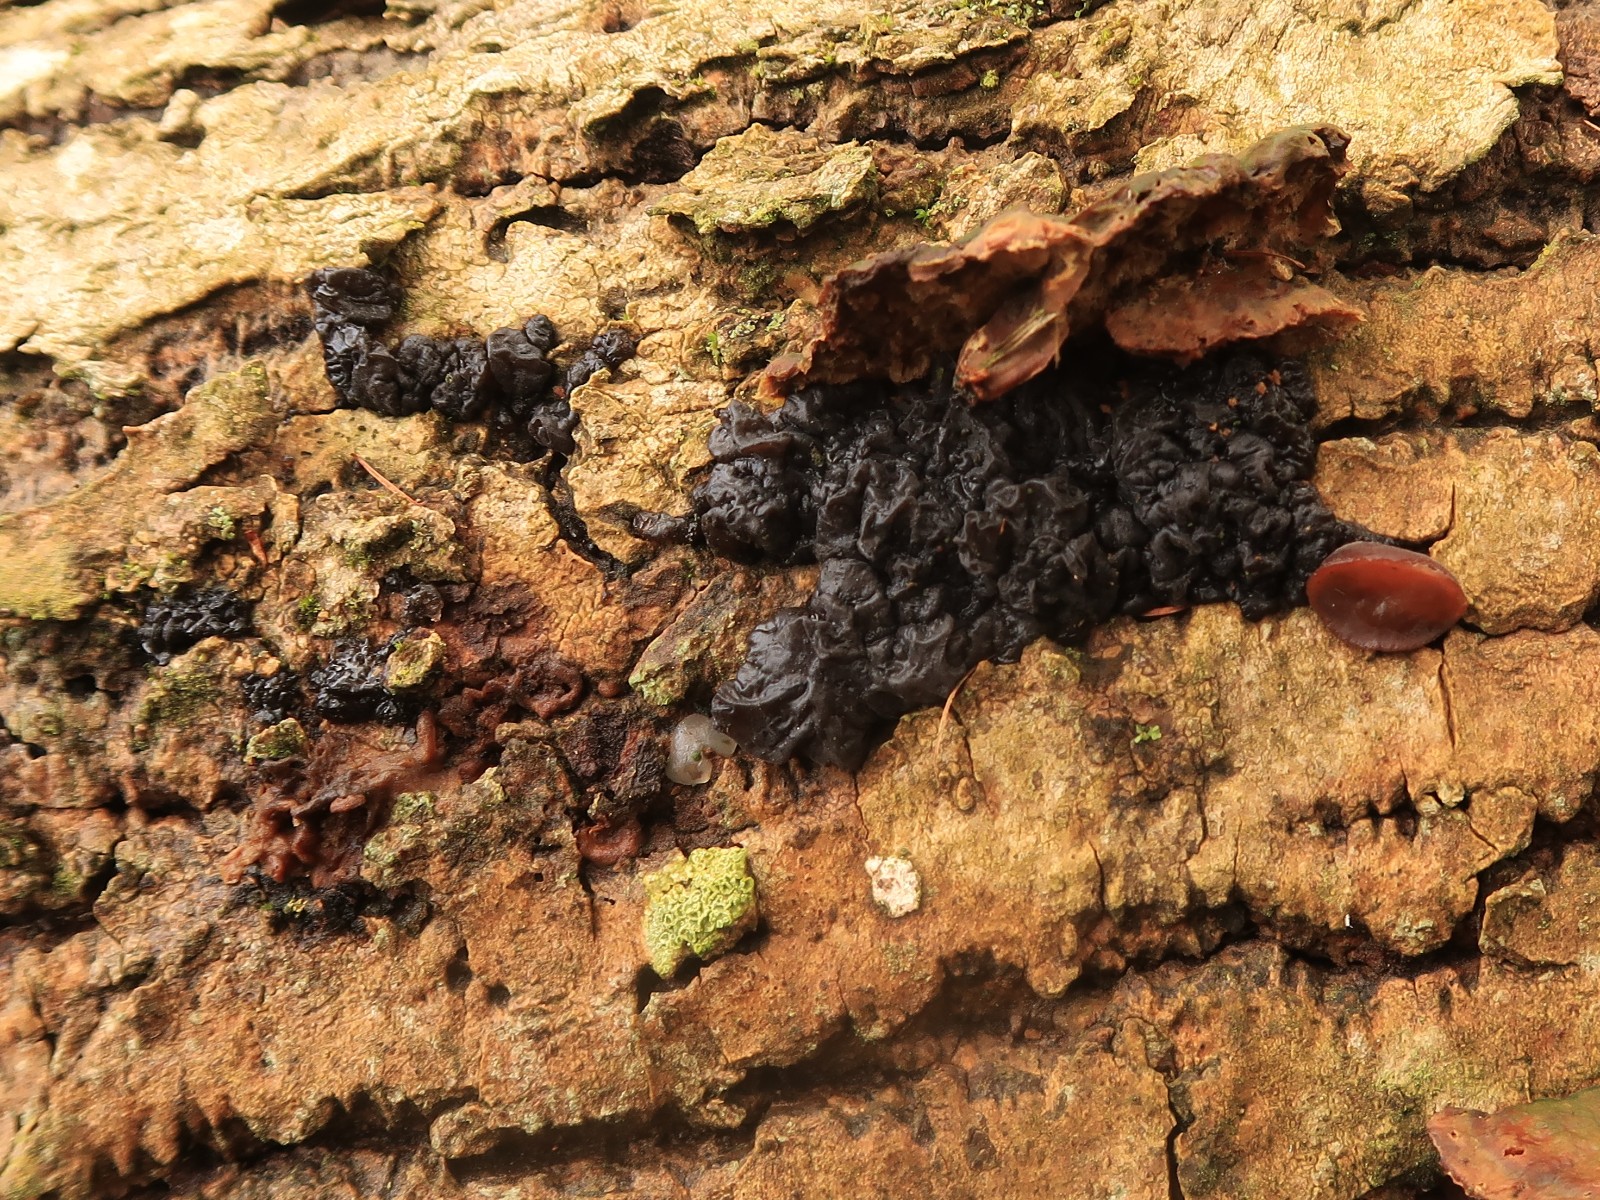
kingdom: Fungi
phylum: Basidiomycota
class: Agaricomycetes
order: Auriculariales
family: Auriculariaceae
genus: Exidia
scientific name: Exidia nigricans
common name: almindelig bævretop
